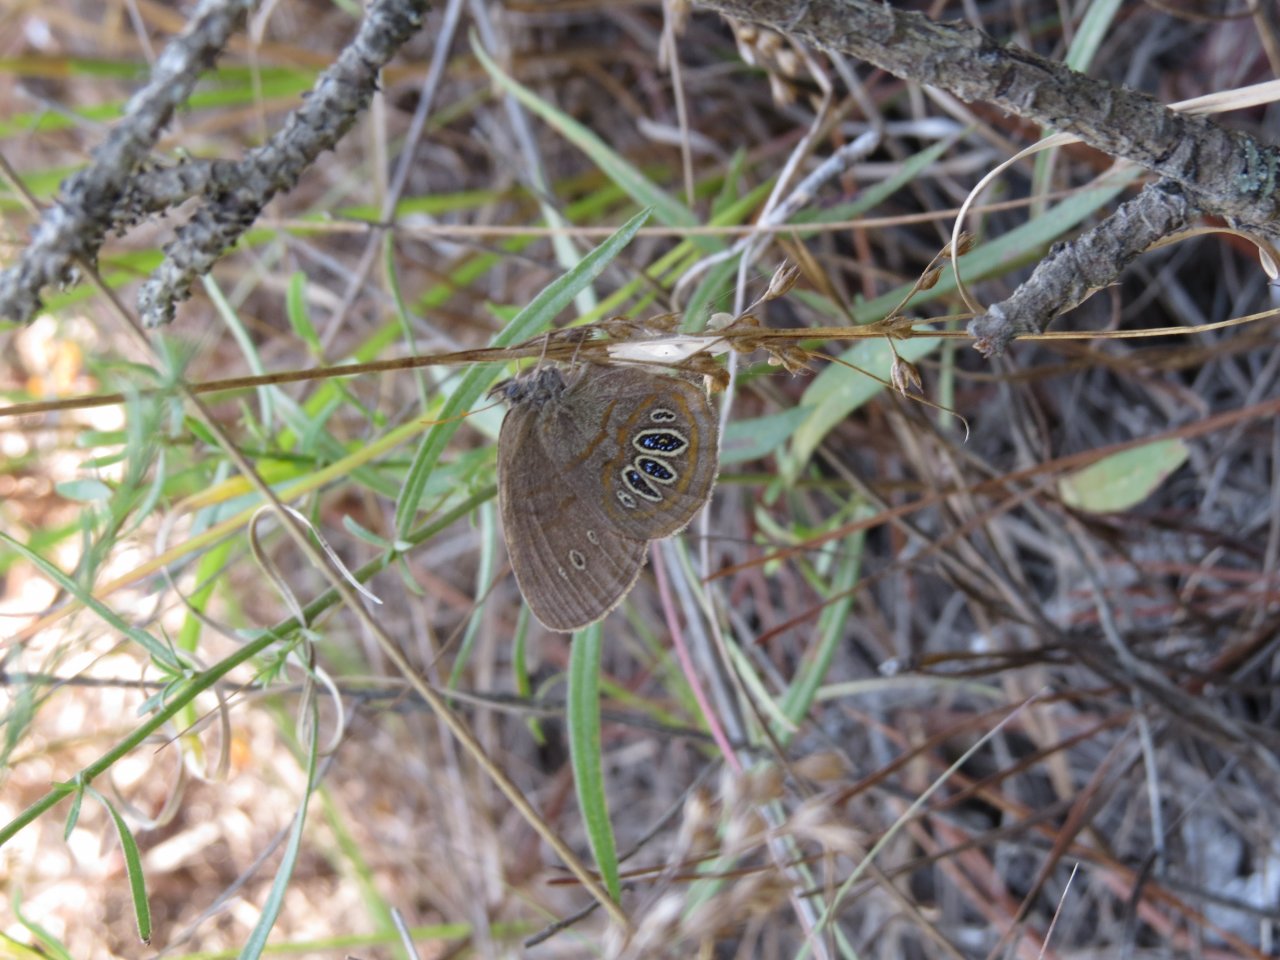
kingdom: Animalia
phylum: Arthropoda
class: Insecta
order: Lepidoptera
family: Nymphalidae
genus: Euptychia
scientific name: Euptychia Neonympha helicta
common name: Helicta Satyr
